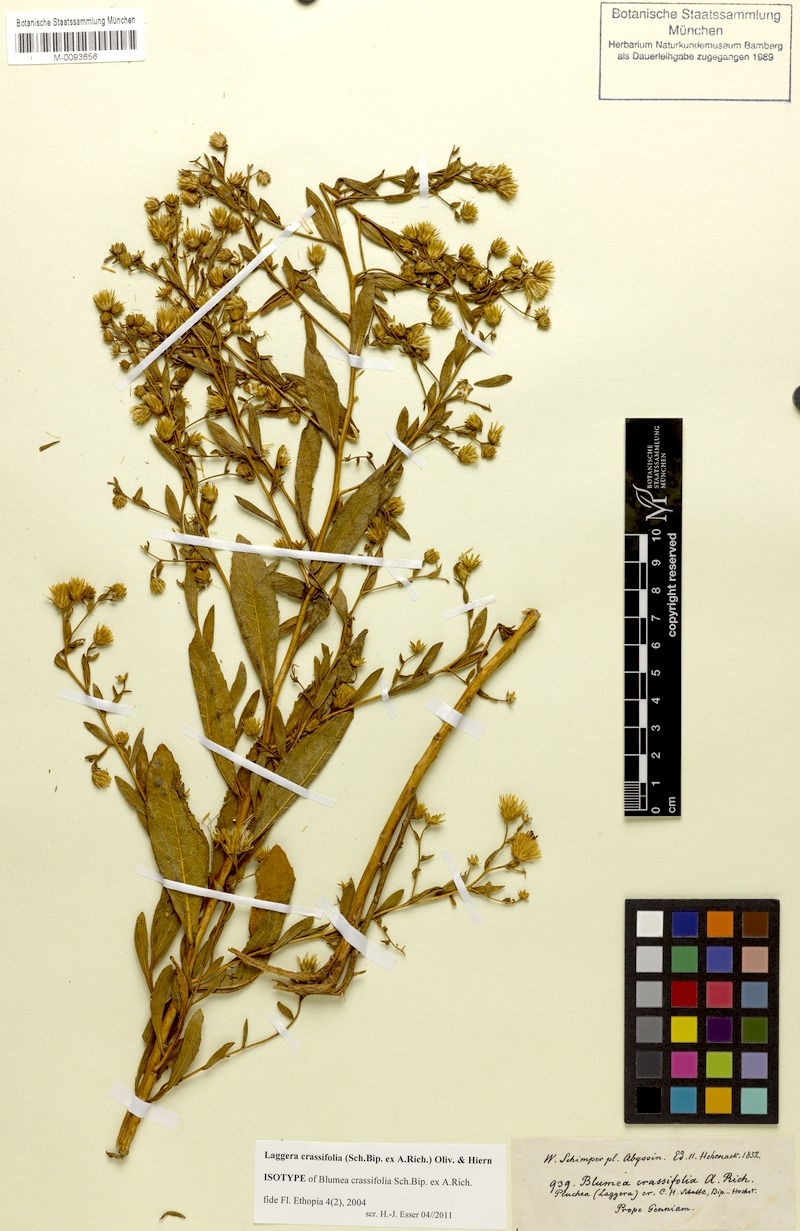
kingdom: Plantae
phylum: Tracheophyta
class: Magnoliopsida
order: Asterales
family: Asteraceae
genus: Laggera
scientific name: Laggera crassifolia
